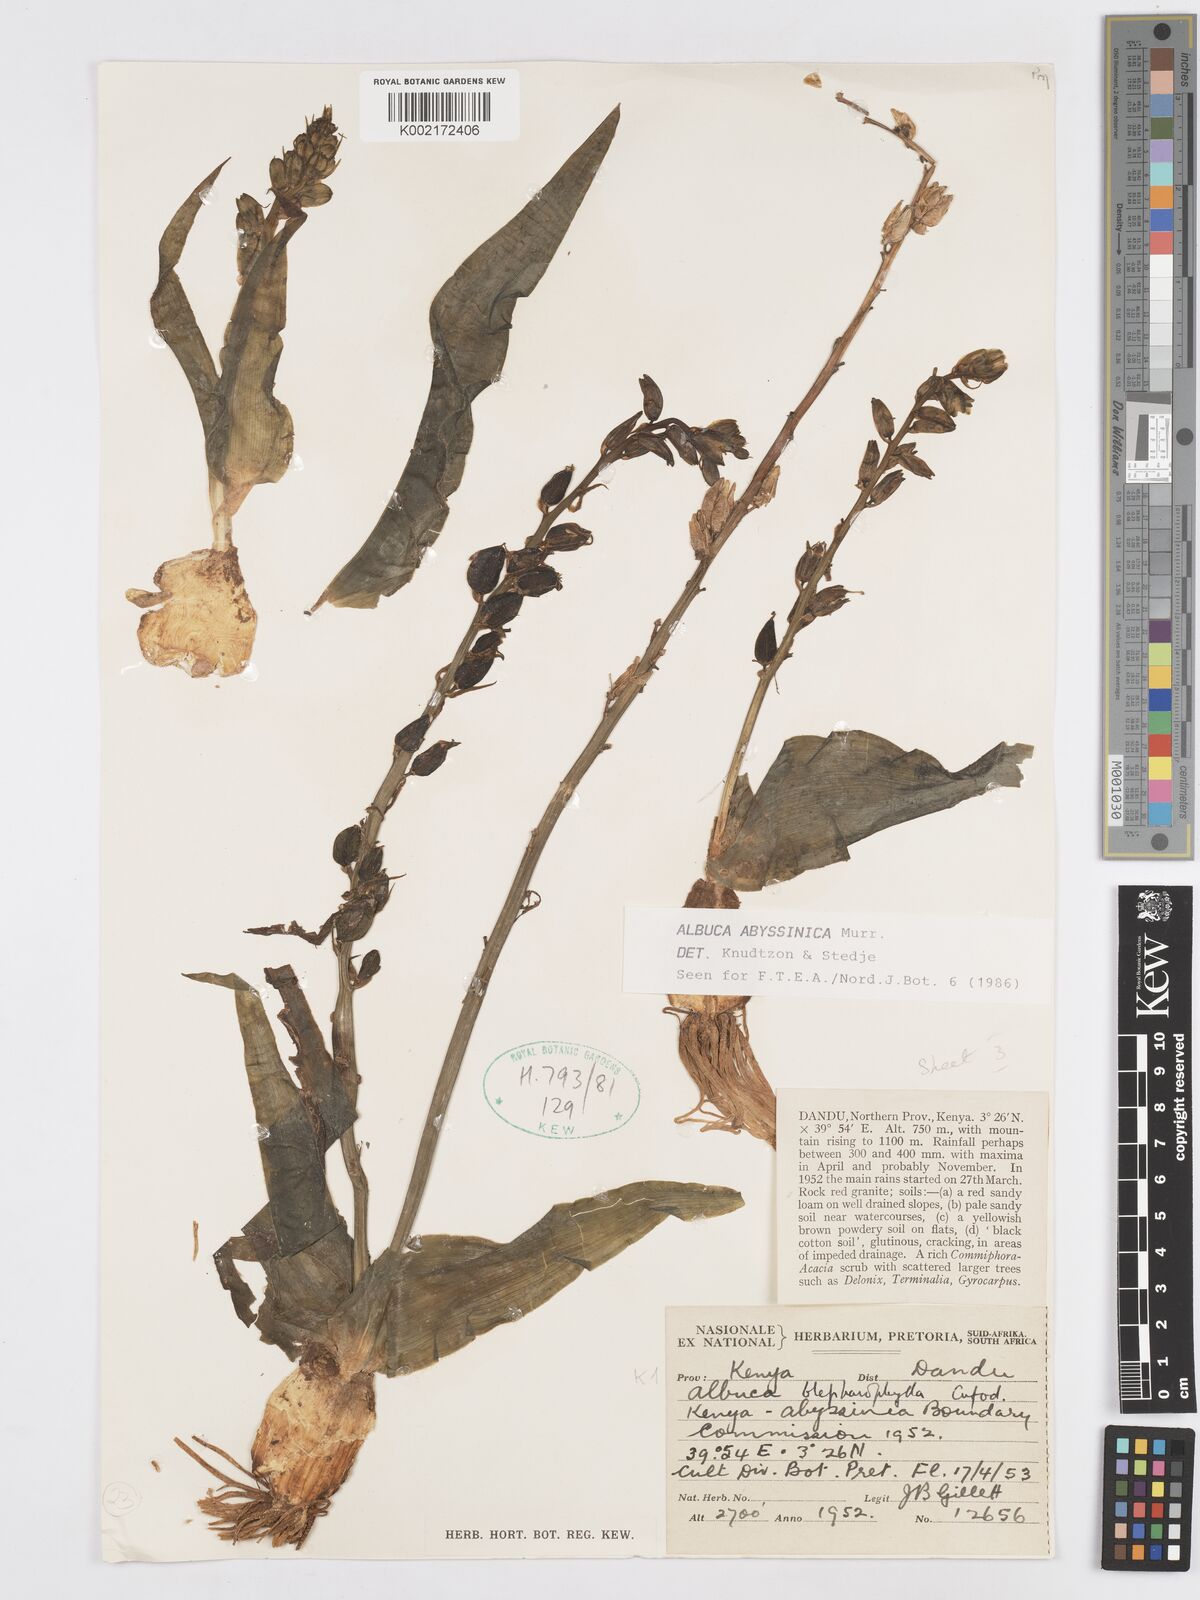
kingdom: Plantae
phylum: Tracheophyta
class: Liliopsida
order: Asparagales
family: Asparagaceae
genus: Albuca
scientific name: Albuca abyssinica
